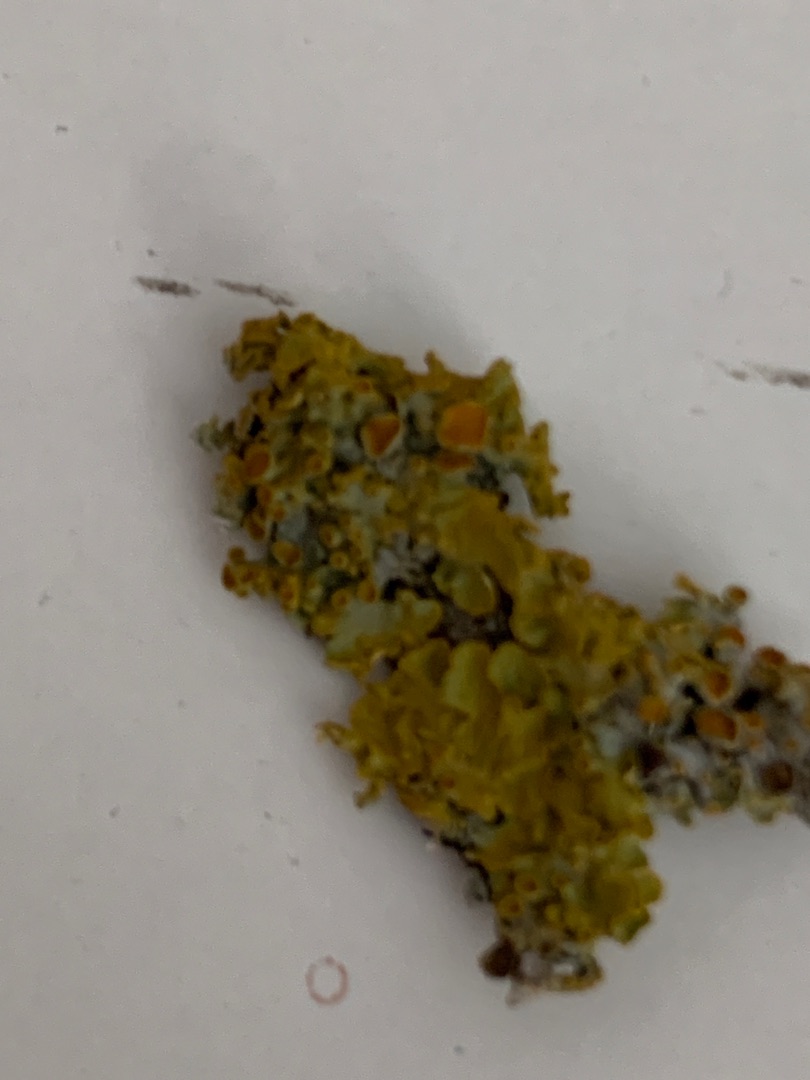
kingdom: Fungi
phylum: Ascomycota
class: Lecanoromycetes
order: Teloschistales
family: Teloschistaceae
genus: Xanthoria
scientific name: Xanthoria parietina
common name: Almindelig væggelav
